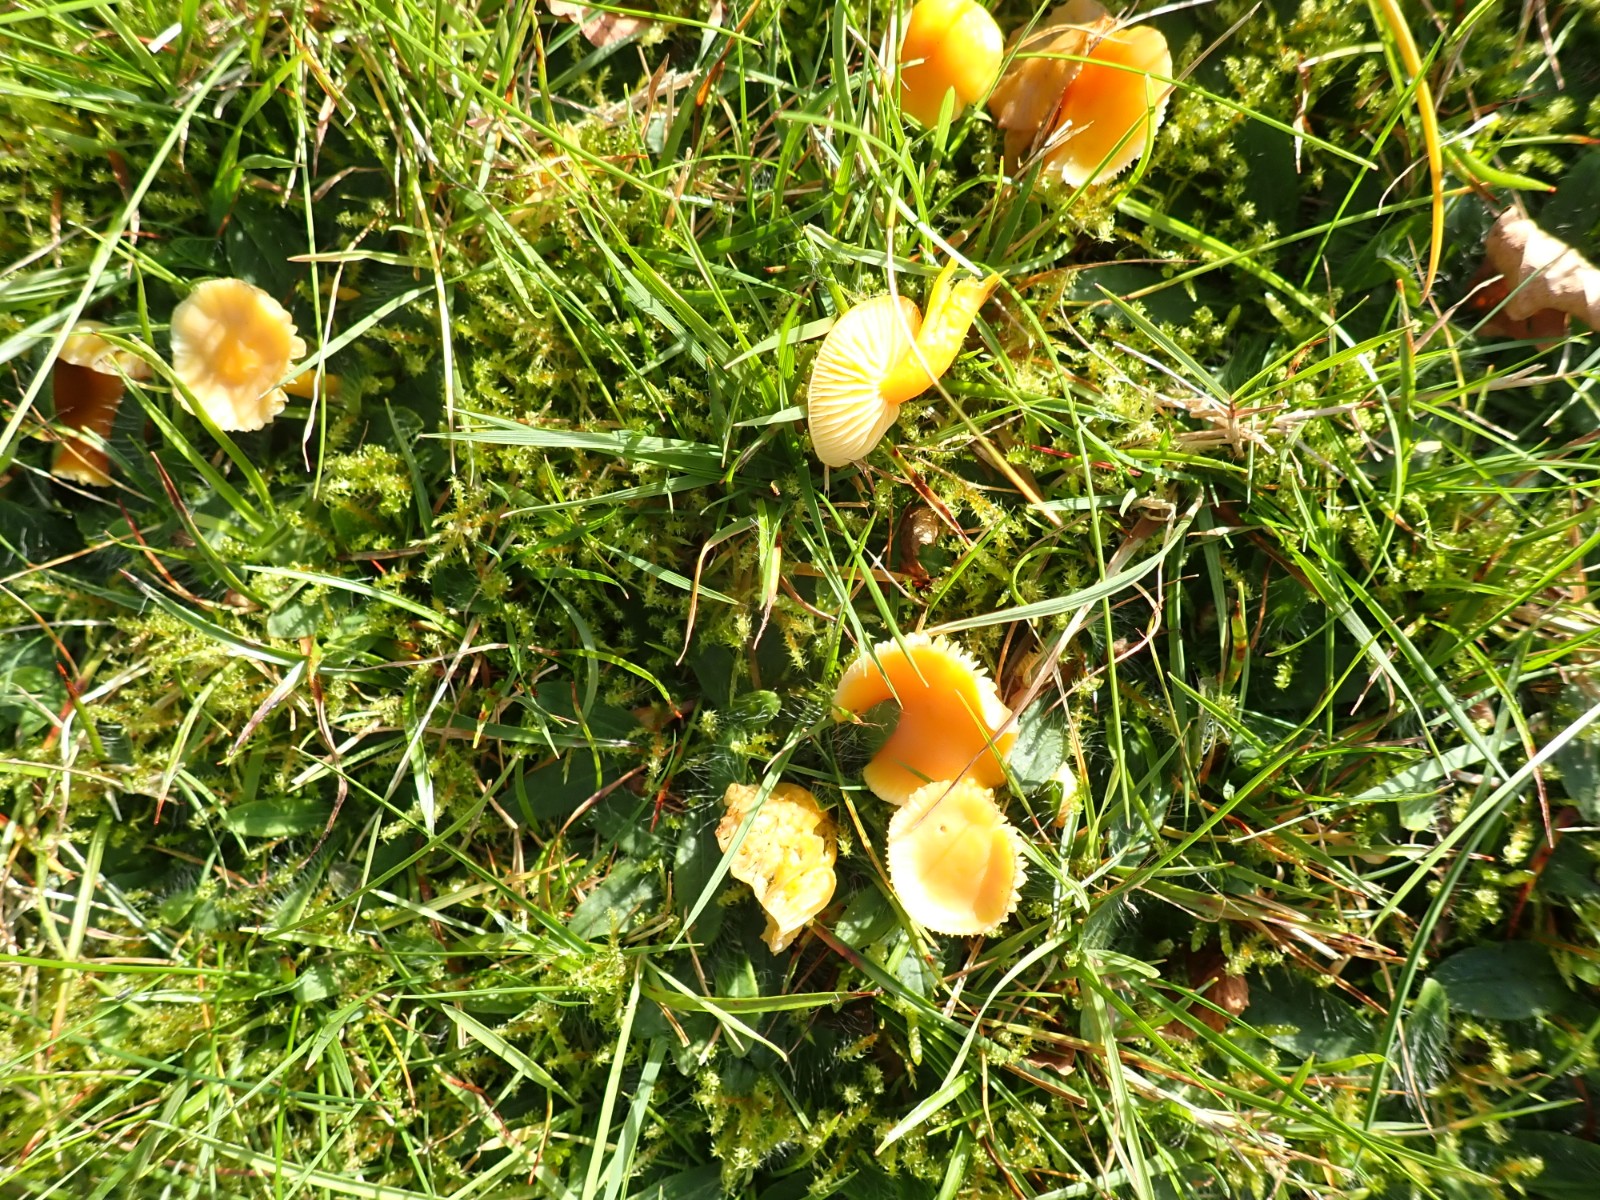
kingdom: Fungi
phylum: Basidiomycota
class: Agaricomycetes
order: Agaricales
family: Hygrophoraceae
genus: Hygrocybe
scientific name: Hygrocybe ceracea
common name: voksgul vokshat
